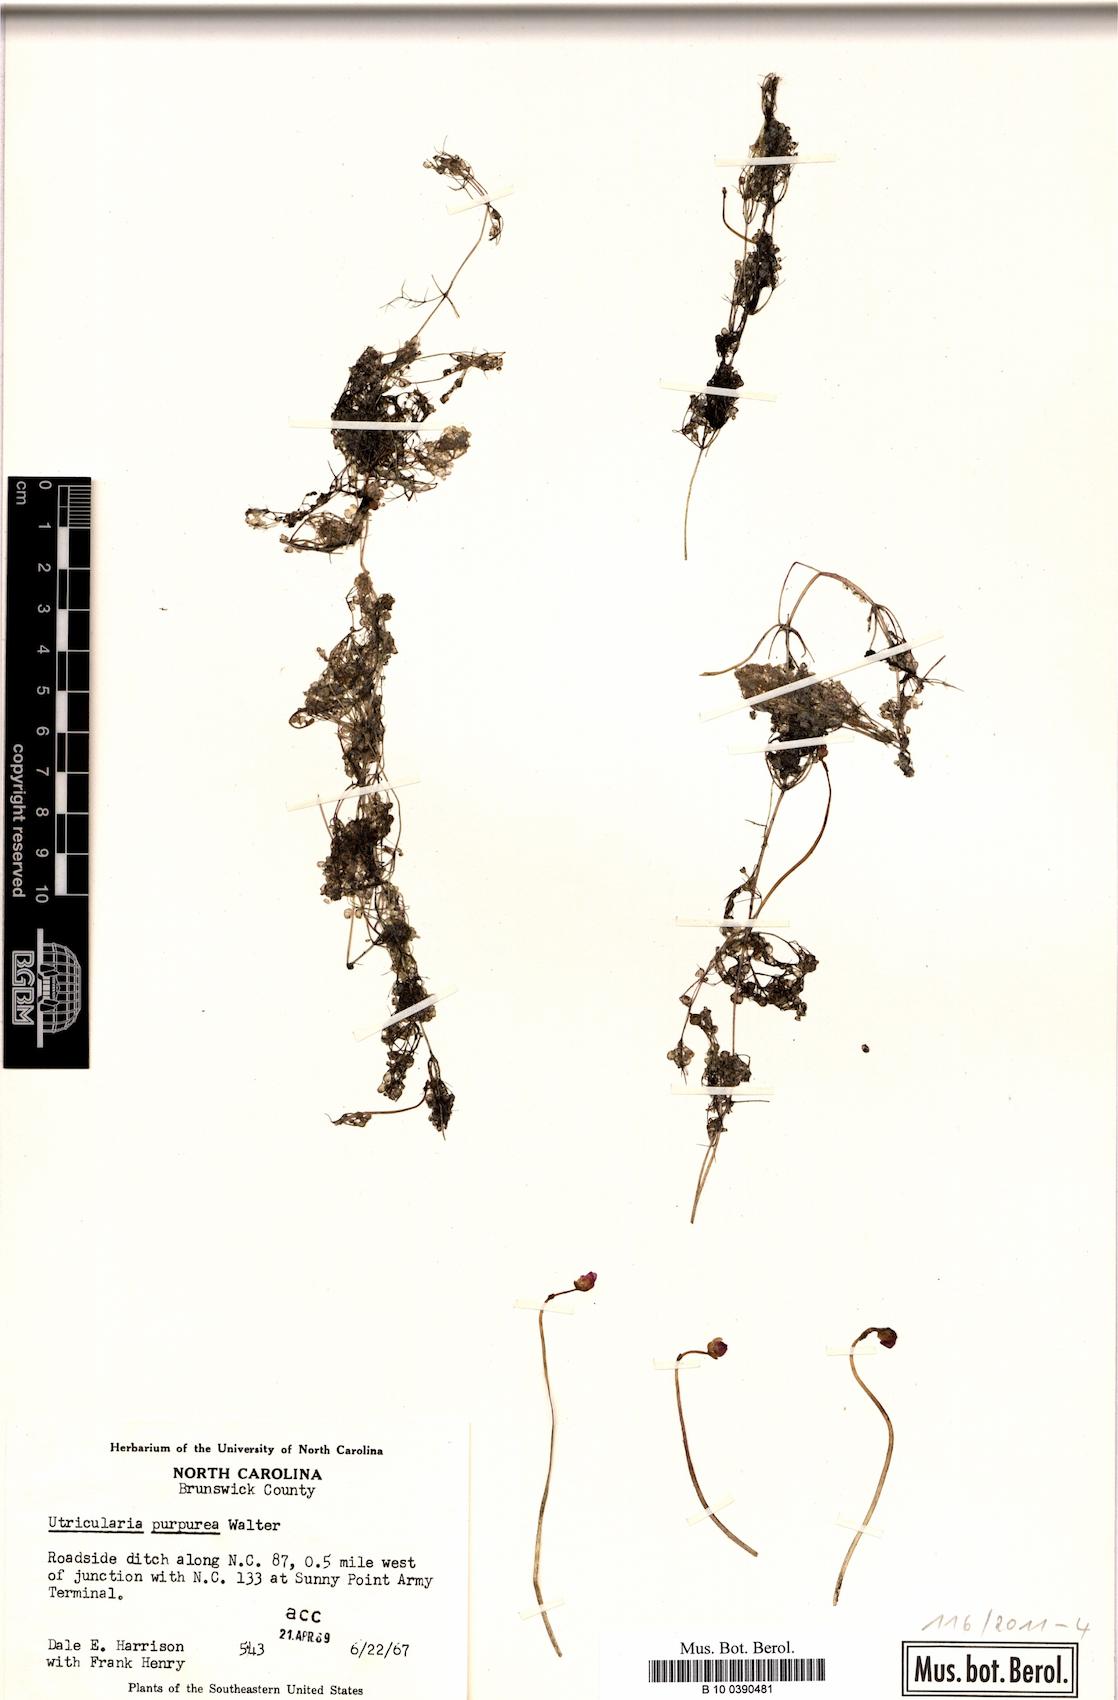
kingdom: Plantae
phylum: Tracheophyta
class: Magnoliopsida
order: Lamiales
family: Lentibulariaceae
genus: Utricularia
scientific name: Utricularia purpurea
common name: Eastern purple bladderwort
